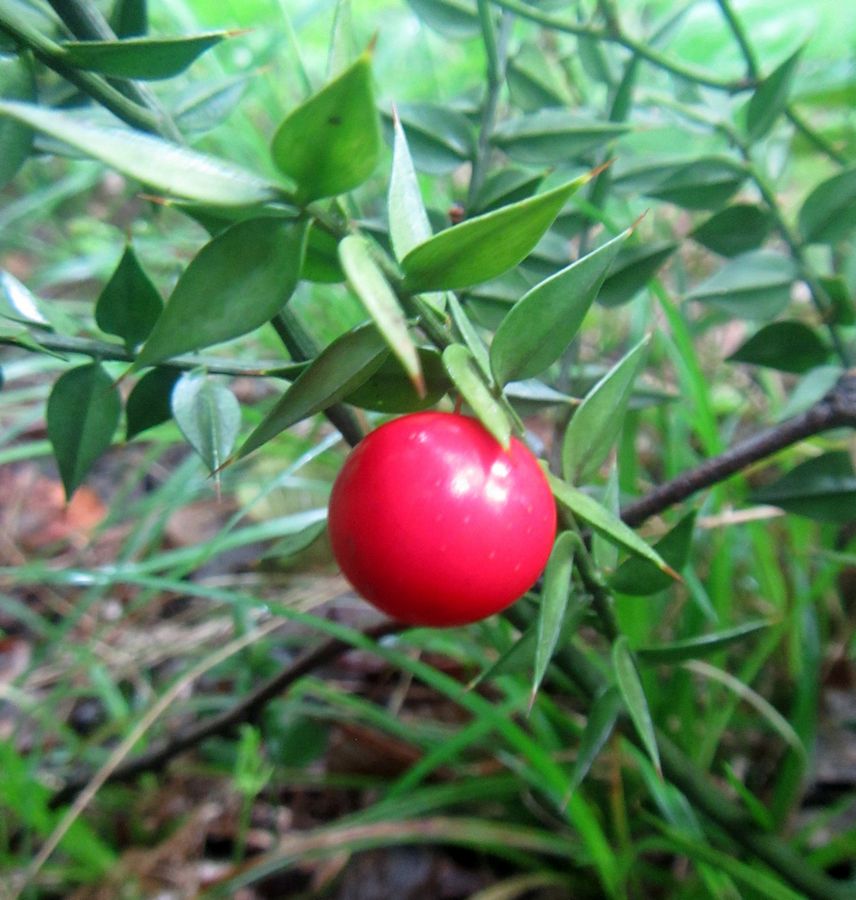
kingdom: Plantae
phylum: Tracheophyta
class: Liliopsida
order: Liliales
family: Liliaceae
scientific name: Liliaceae
